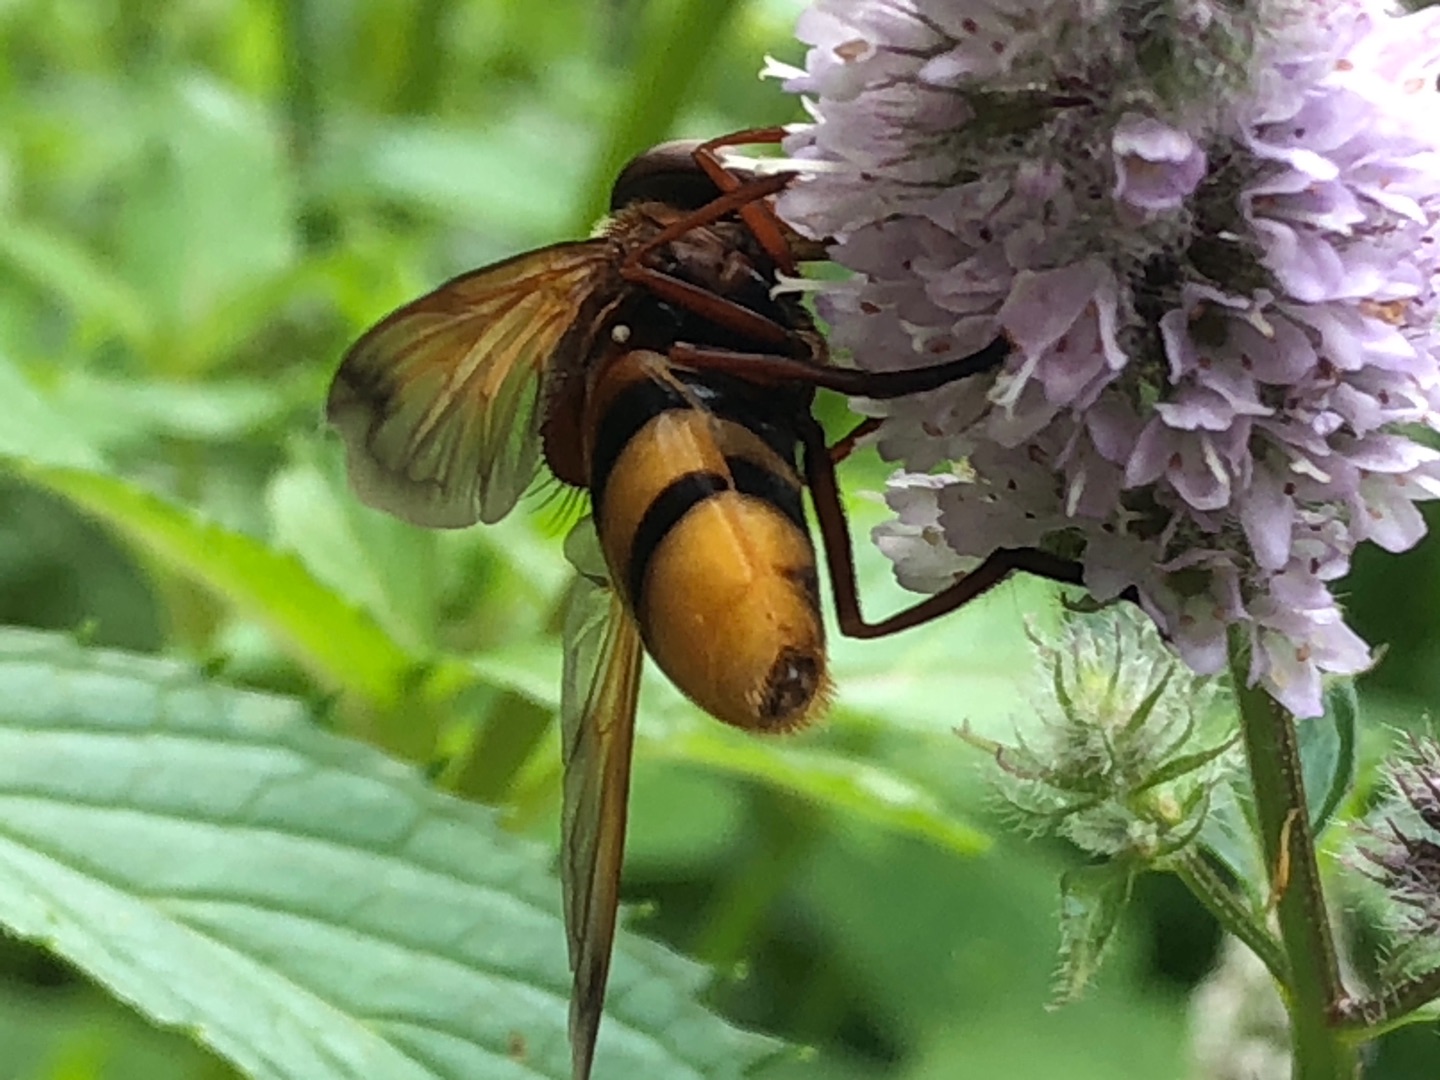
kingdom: Animalia
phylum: Arthropoda
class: Insecta
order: Diptera
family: Syrphidae
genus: Volucella
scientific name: Volucella zonaria
